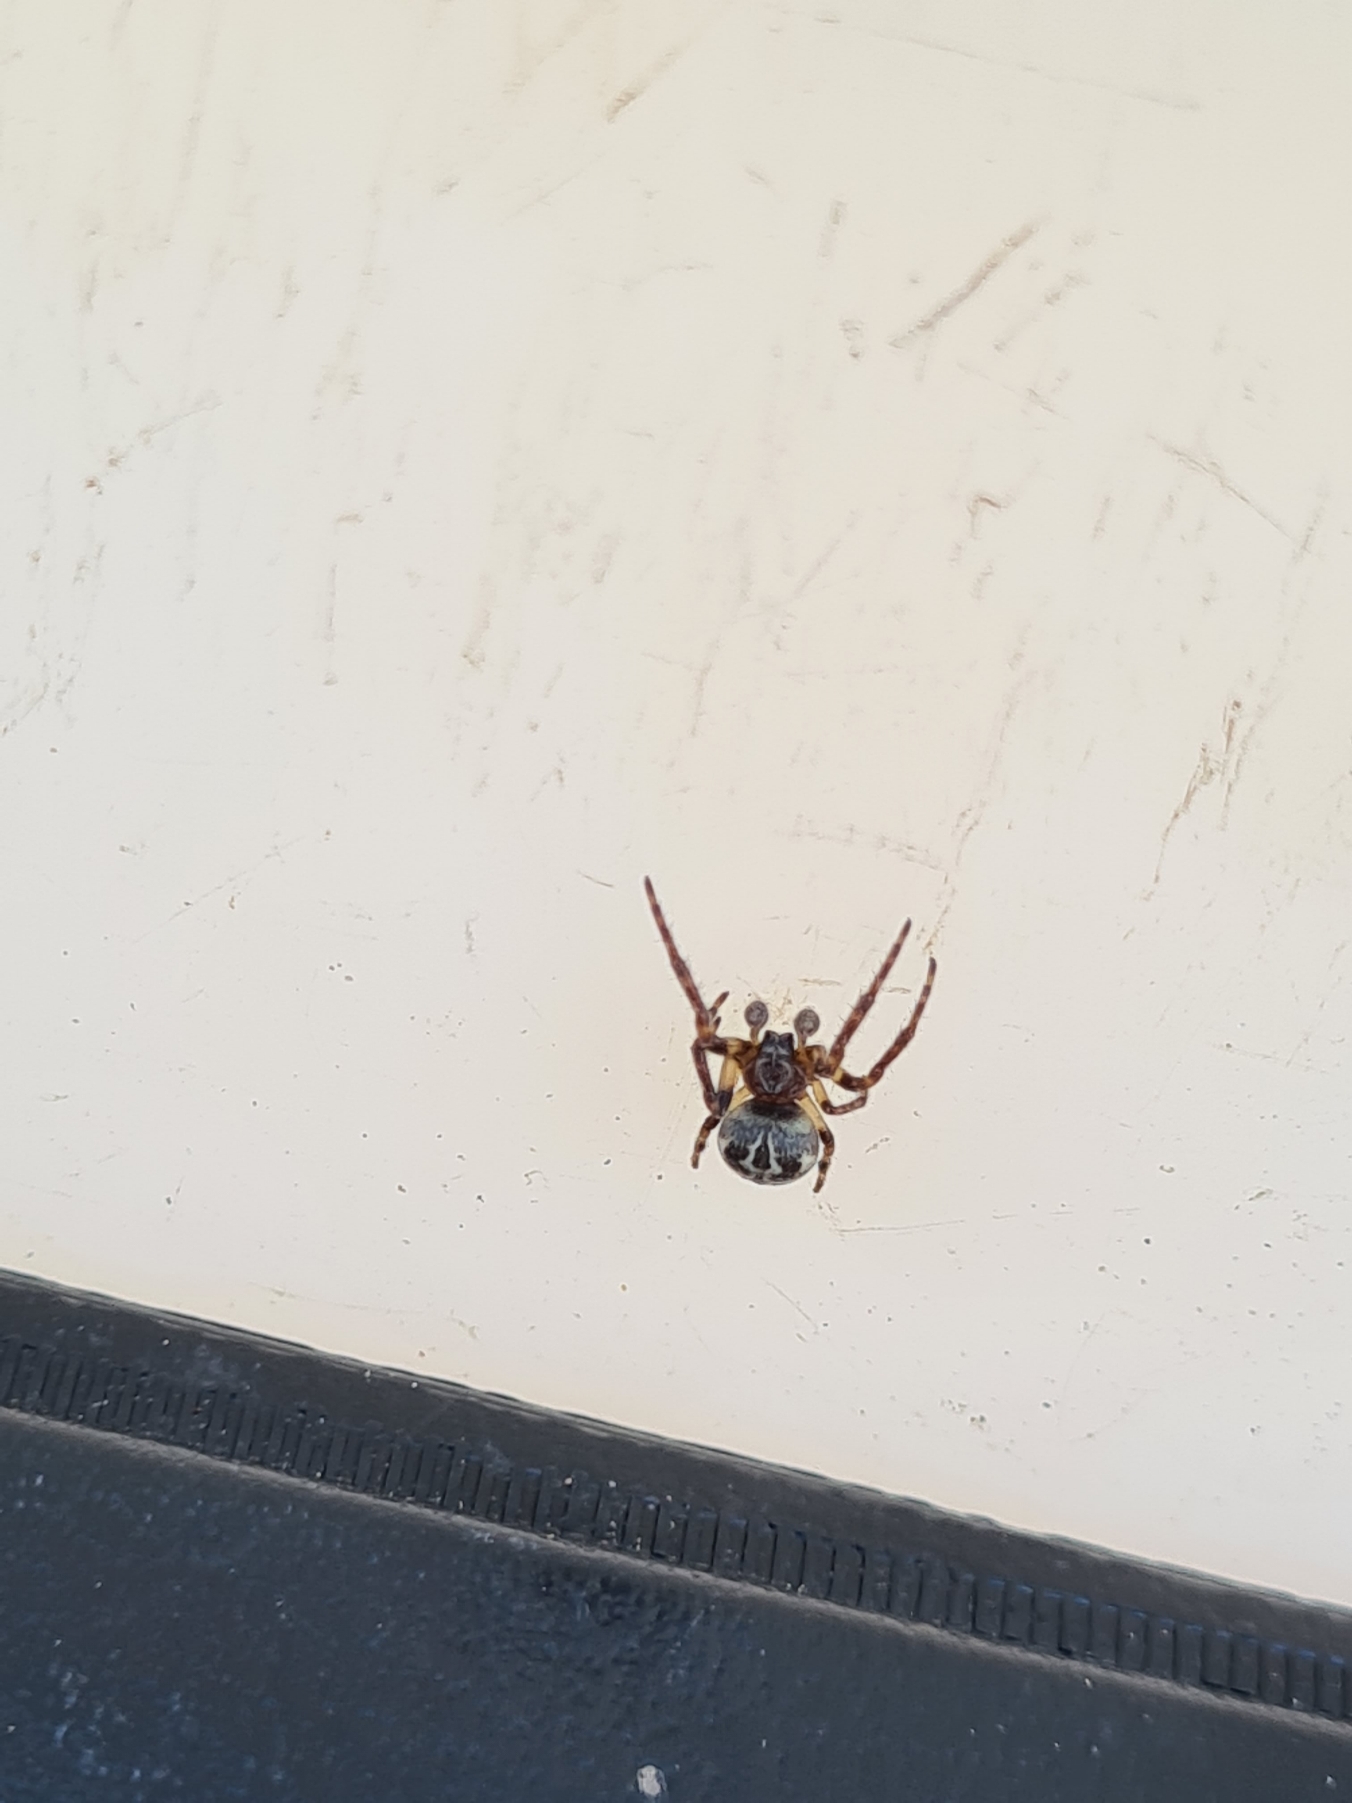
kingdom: Animalia
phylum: Arthropoda
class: Arachnida
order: Araneae
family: Araneidae
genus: Larinioides
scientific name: Larinioides cornutus
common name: Sivhjulspinder
